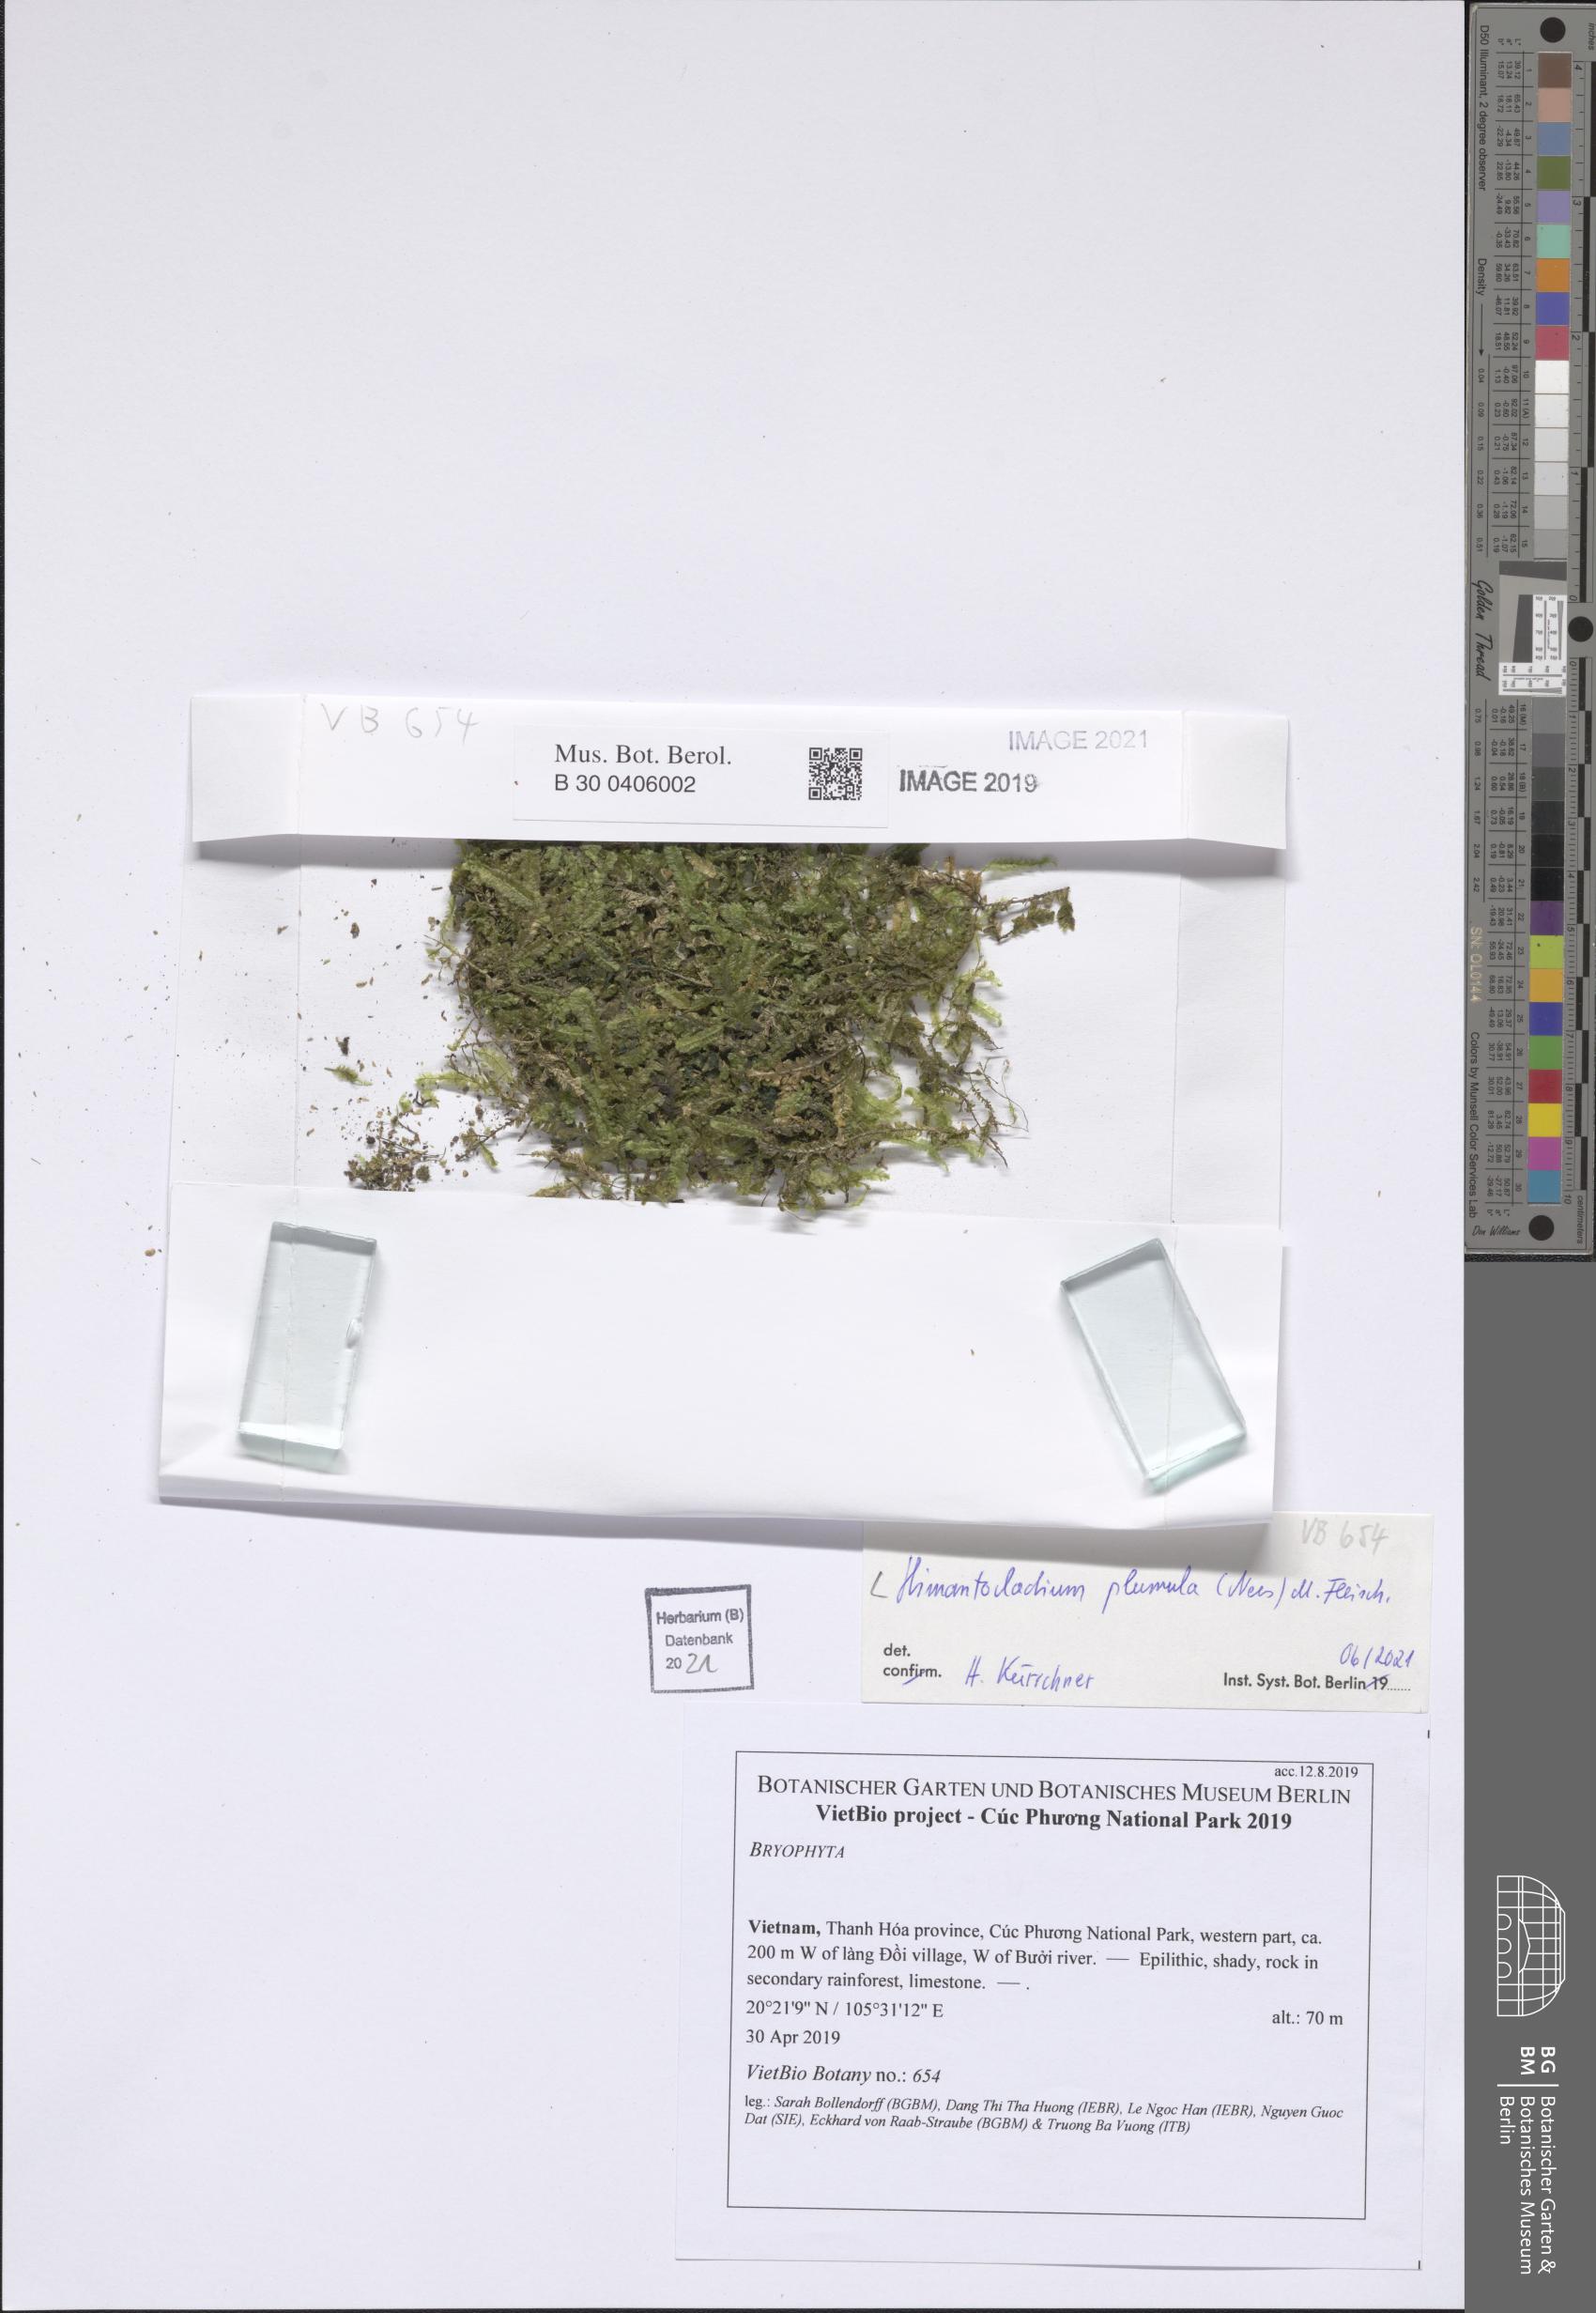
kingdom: Plantae
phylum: Bryophyta
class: Bryopsida
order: Hypnales
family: Neckeraceae
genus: Himantocladium
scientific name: Himantocladium plumula
